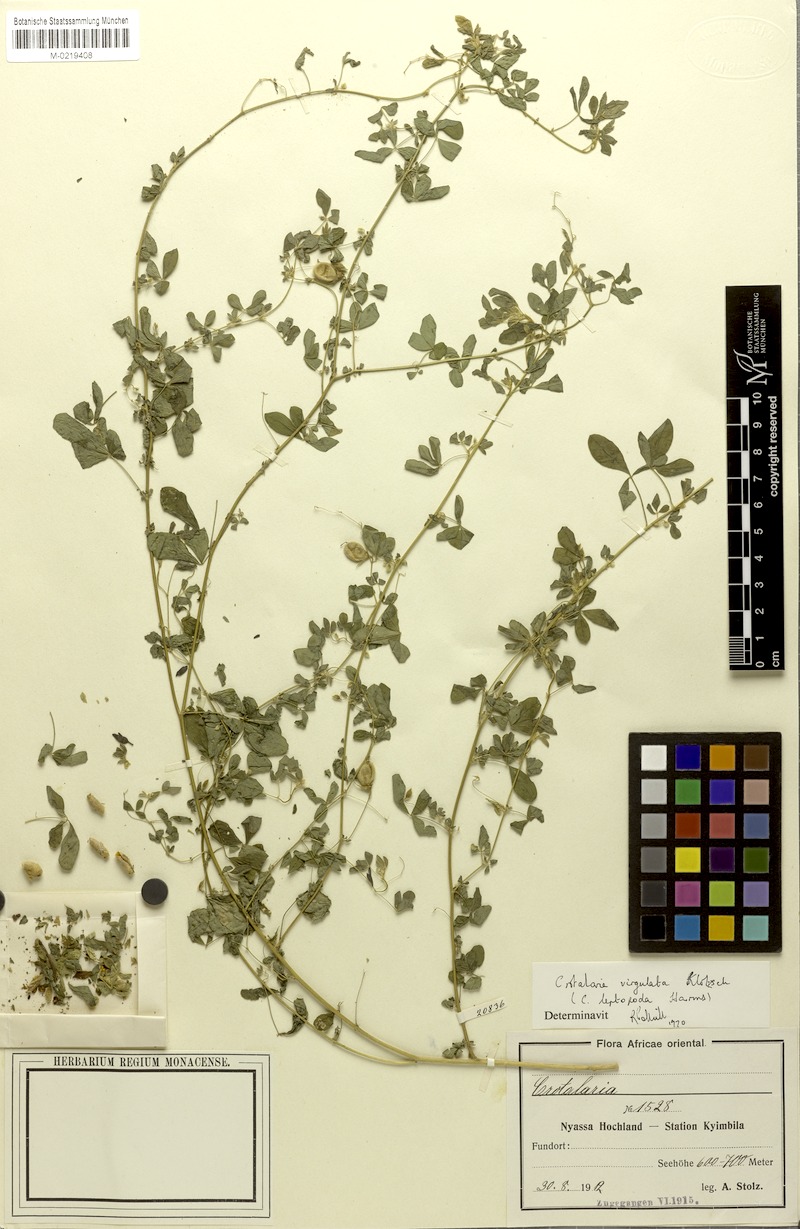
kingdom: Plantae
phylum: Tracheophyta
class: Magnoliopsida
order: Fabales
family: Fabaceae
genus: Crotalaria
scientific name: Crotalaria virgulata
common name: Thicket rattlebox
